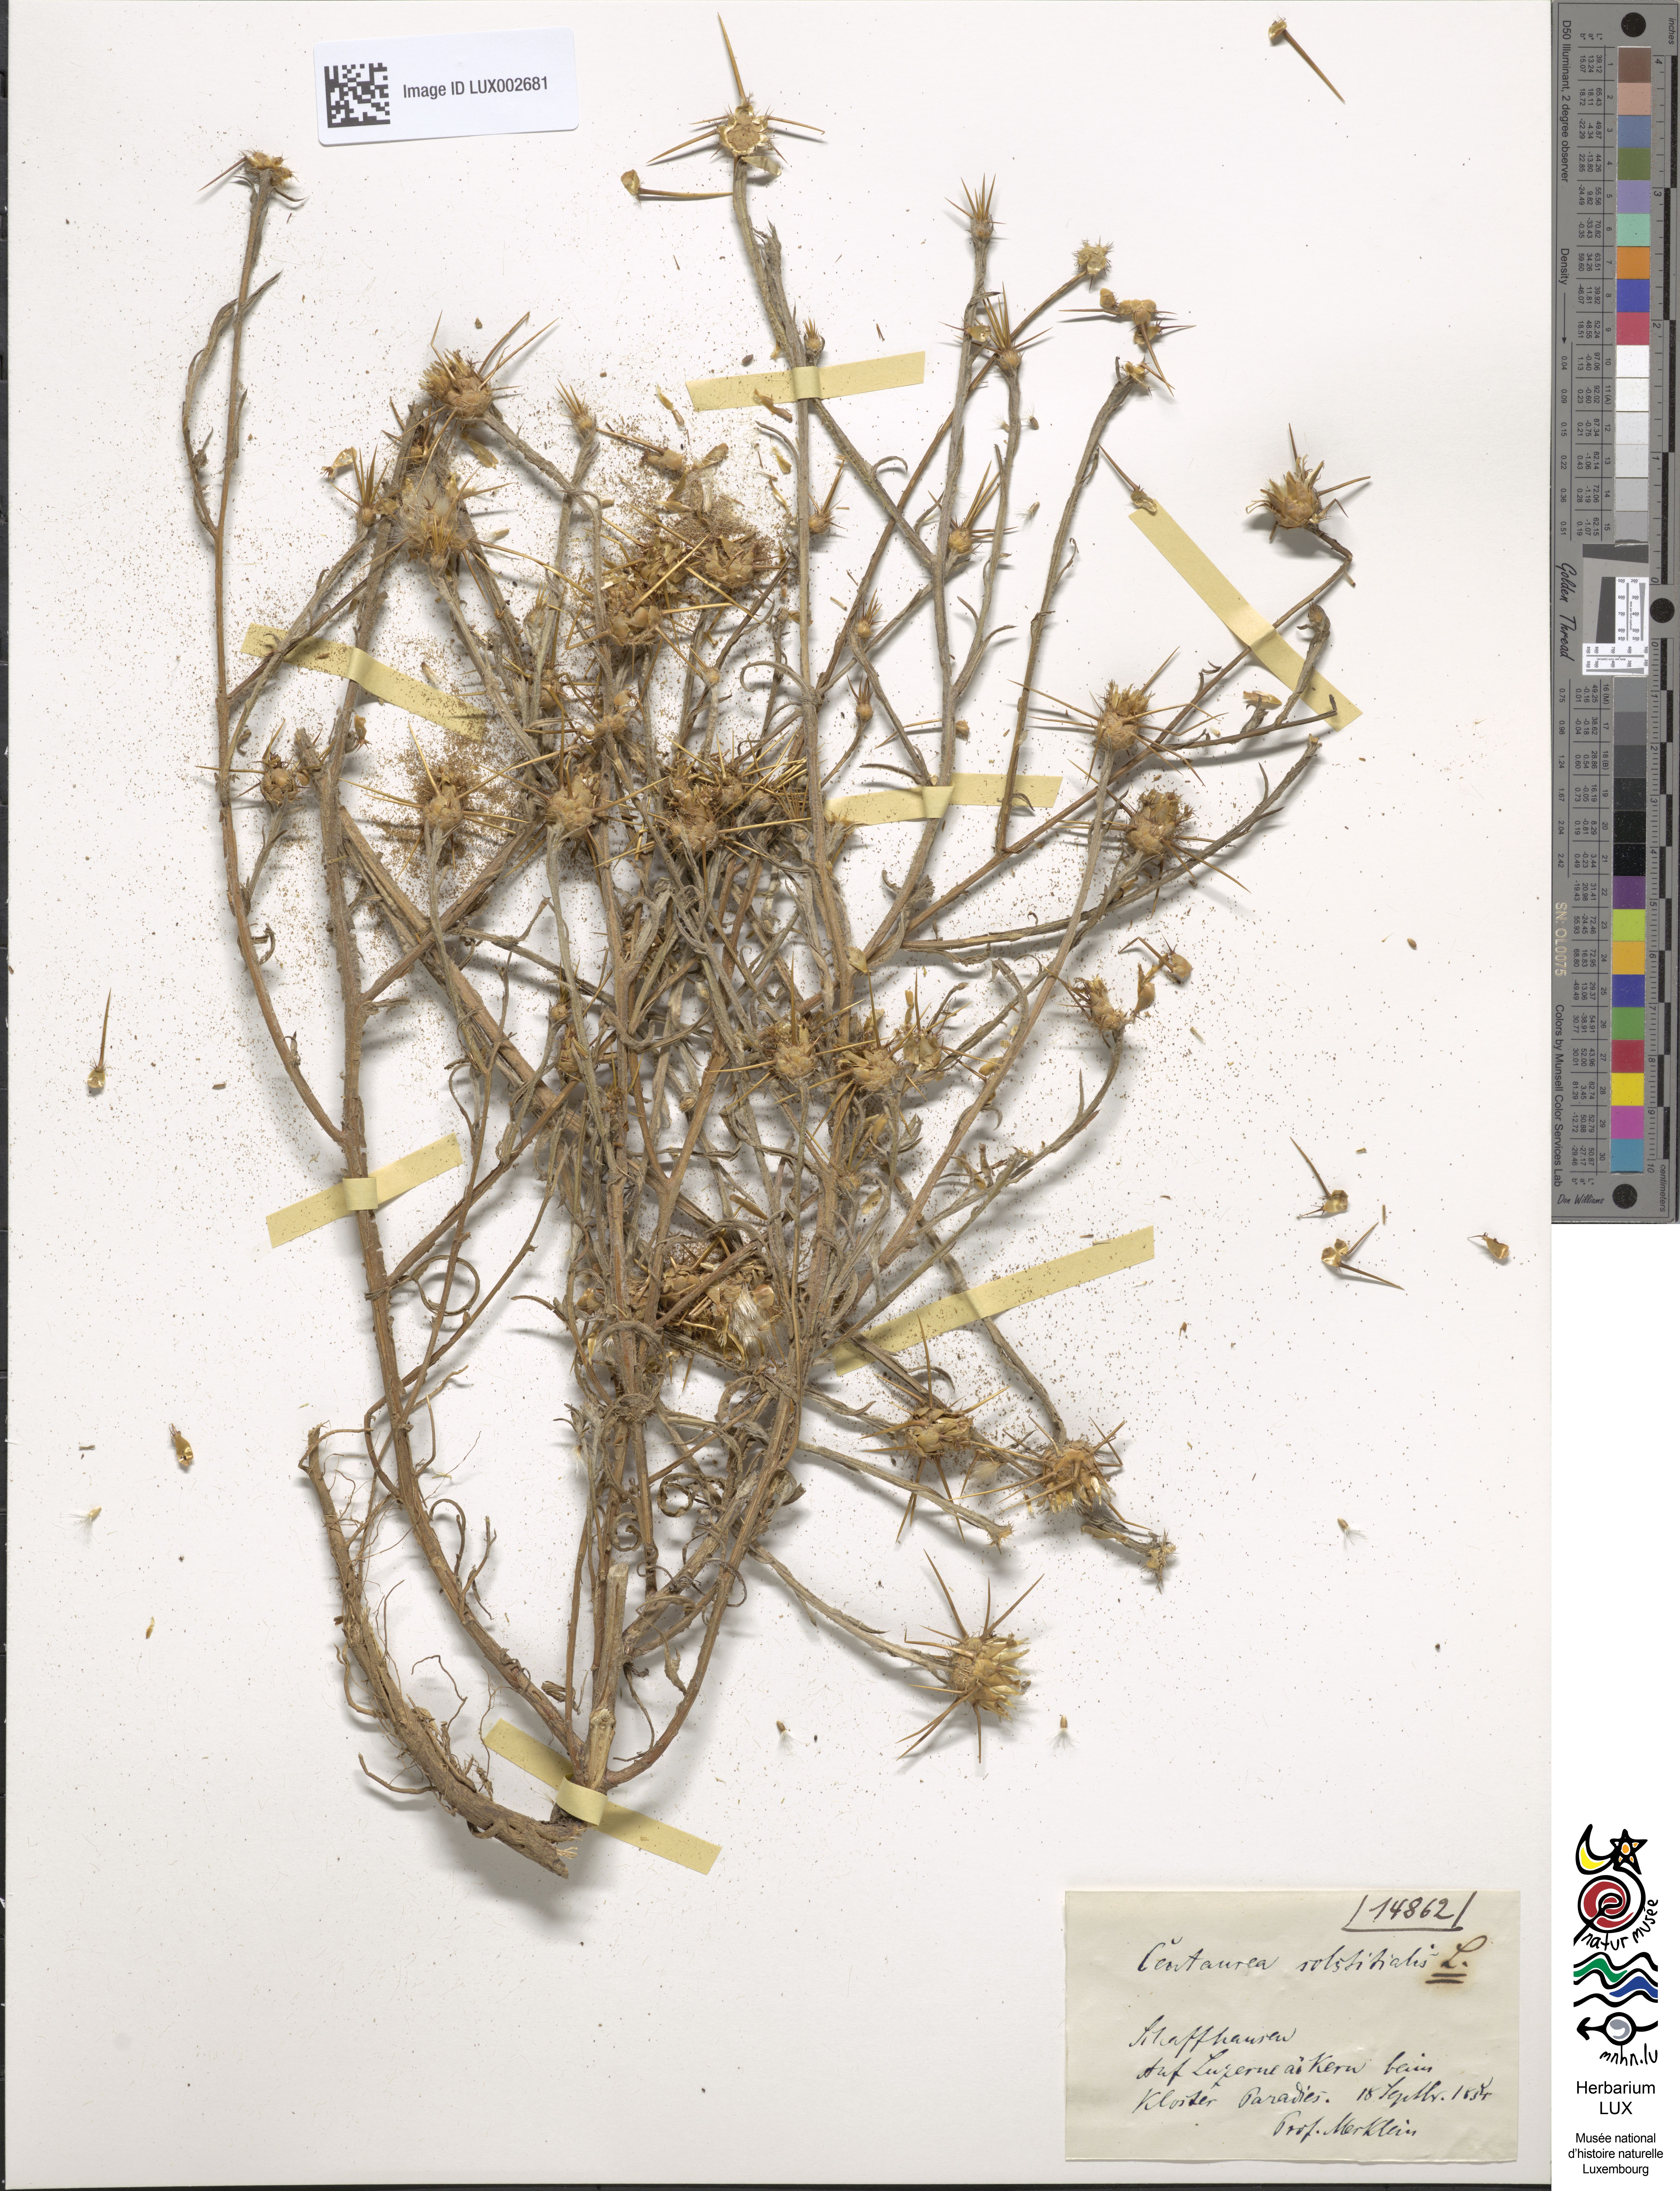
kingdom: Plantae
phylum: Tracheophyta
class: Magnoliopsida
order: Asterales
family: Asteraceae
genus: Centaurea
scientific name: Centaurea solstitialis
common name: Yellow star-thistle
